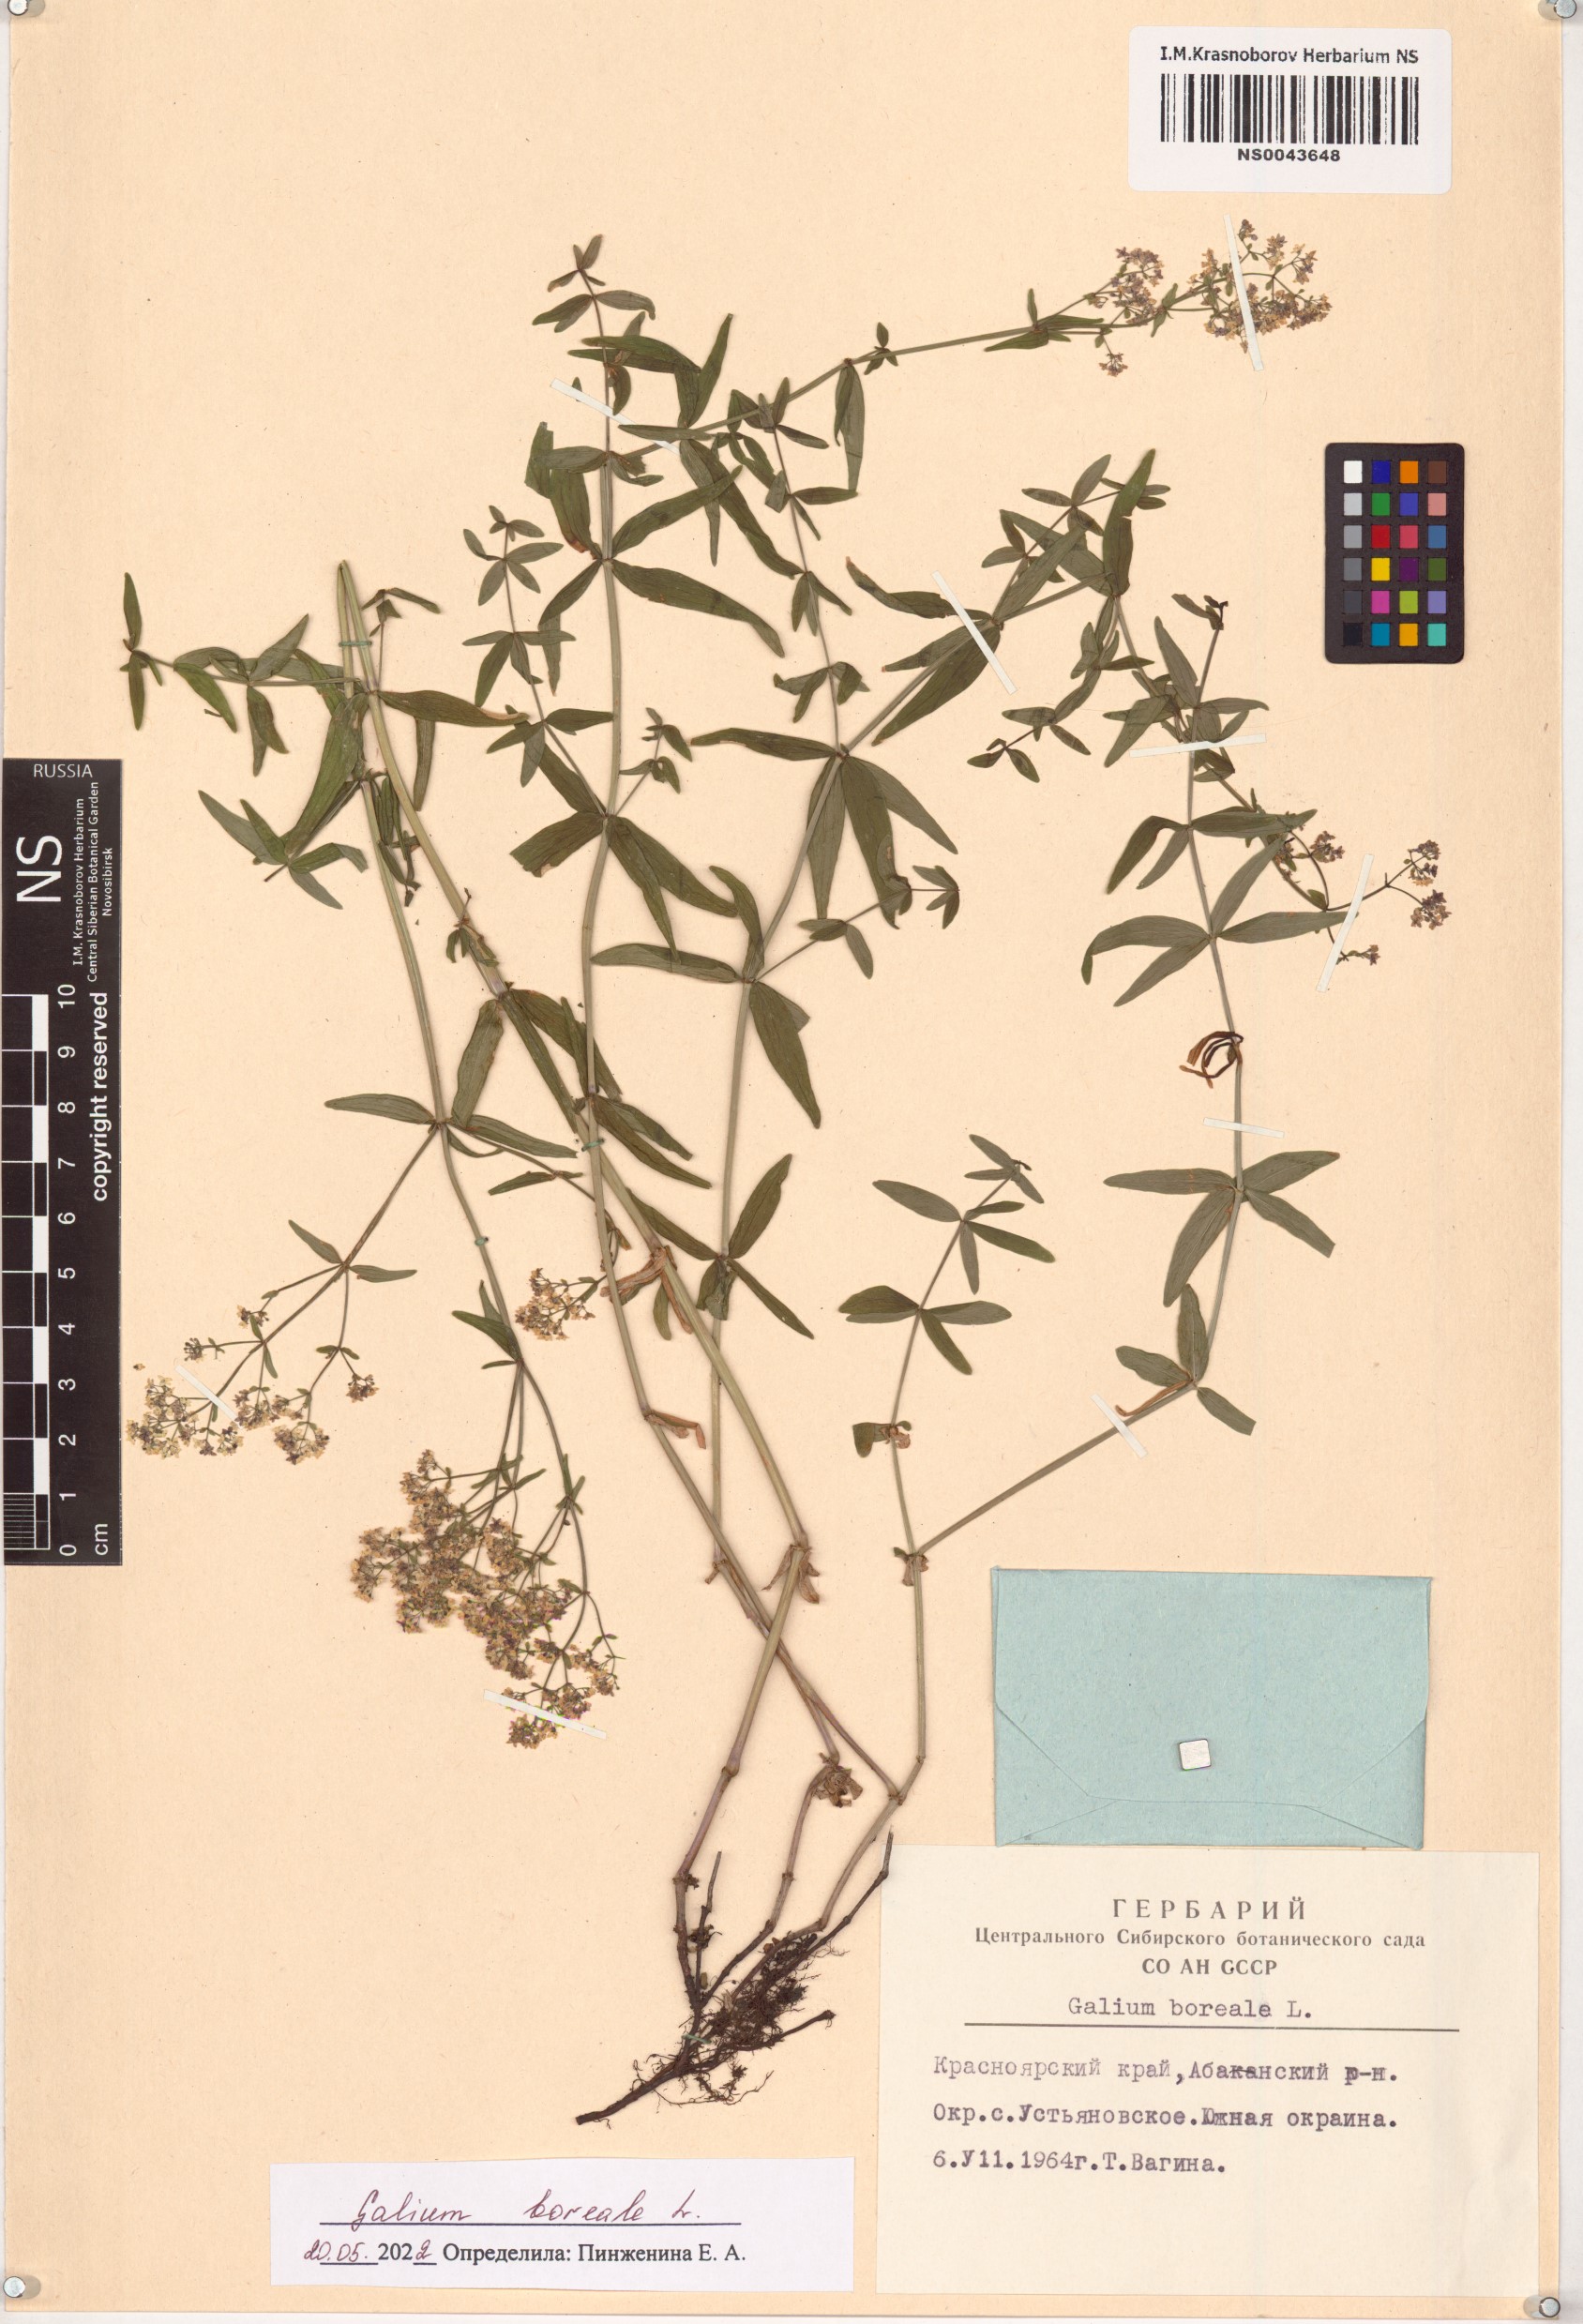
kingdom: Plantae
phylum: Tracheophyta
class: Magnoliopsida
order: Gentianales
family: Rubiaceae
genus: Galium
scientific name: Galium boreale
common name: Northern bedstraw
